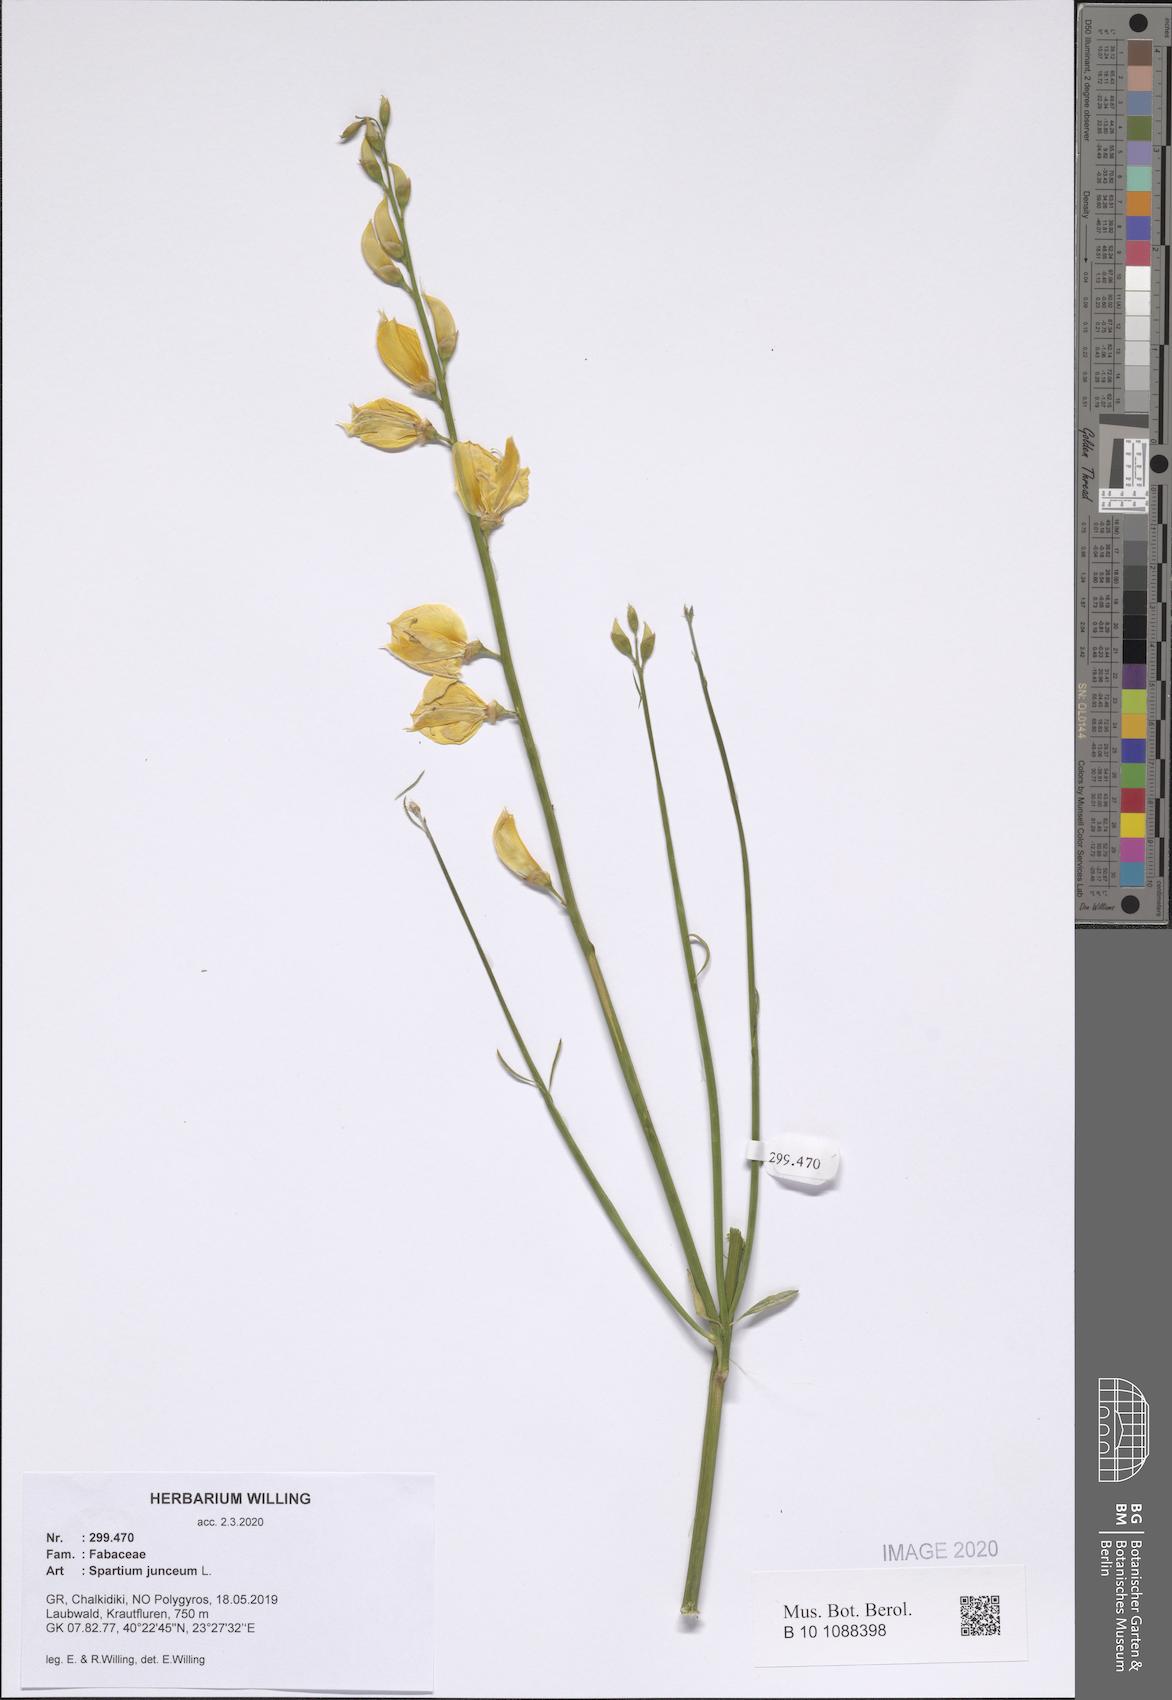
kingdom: Plantae
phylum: Tracheophyta
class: Magnoliopsida
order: Fabales
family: Fabaceae
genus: Spartium
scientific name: Spartium junceum
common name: Spanish broom
